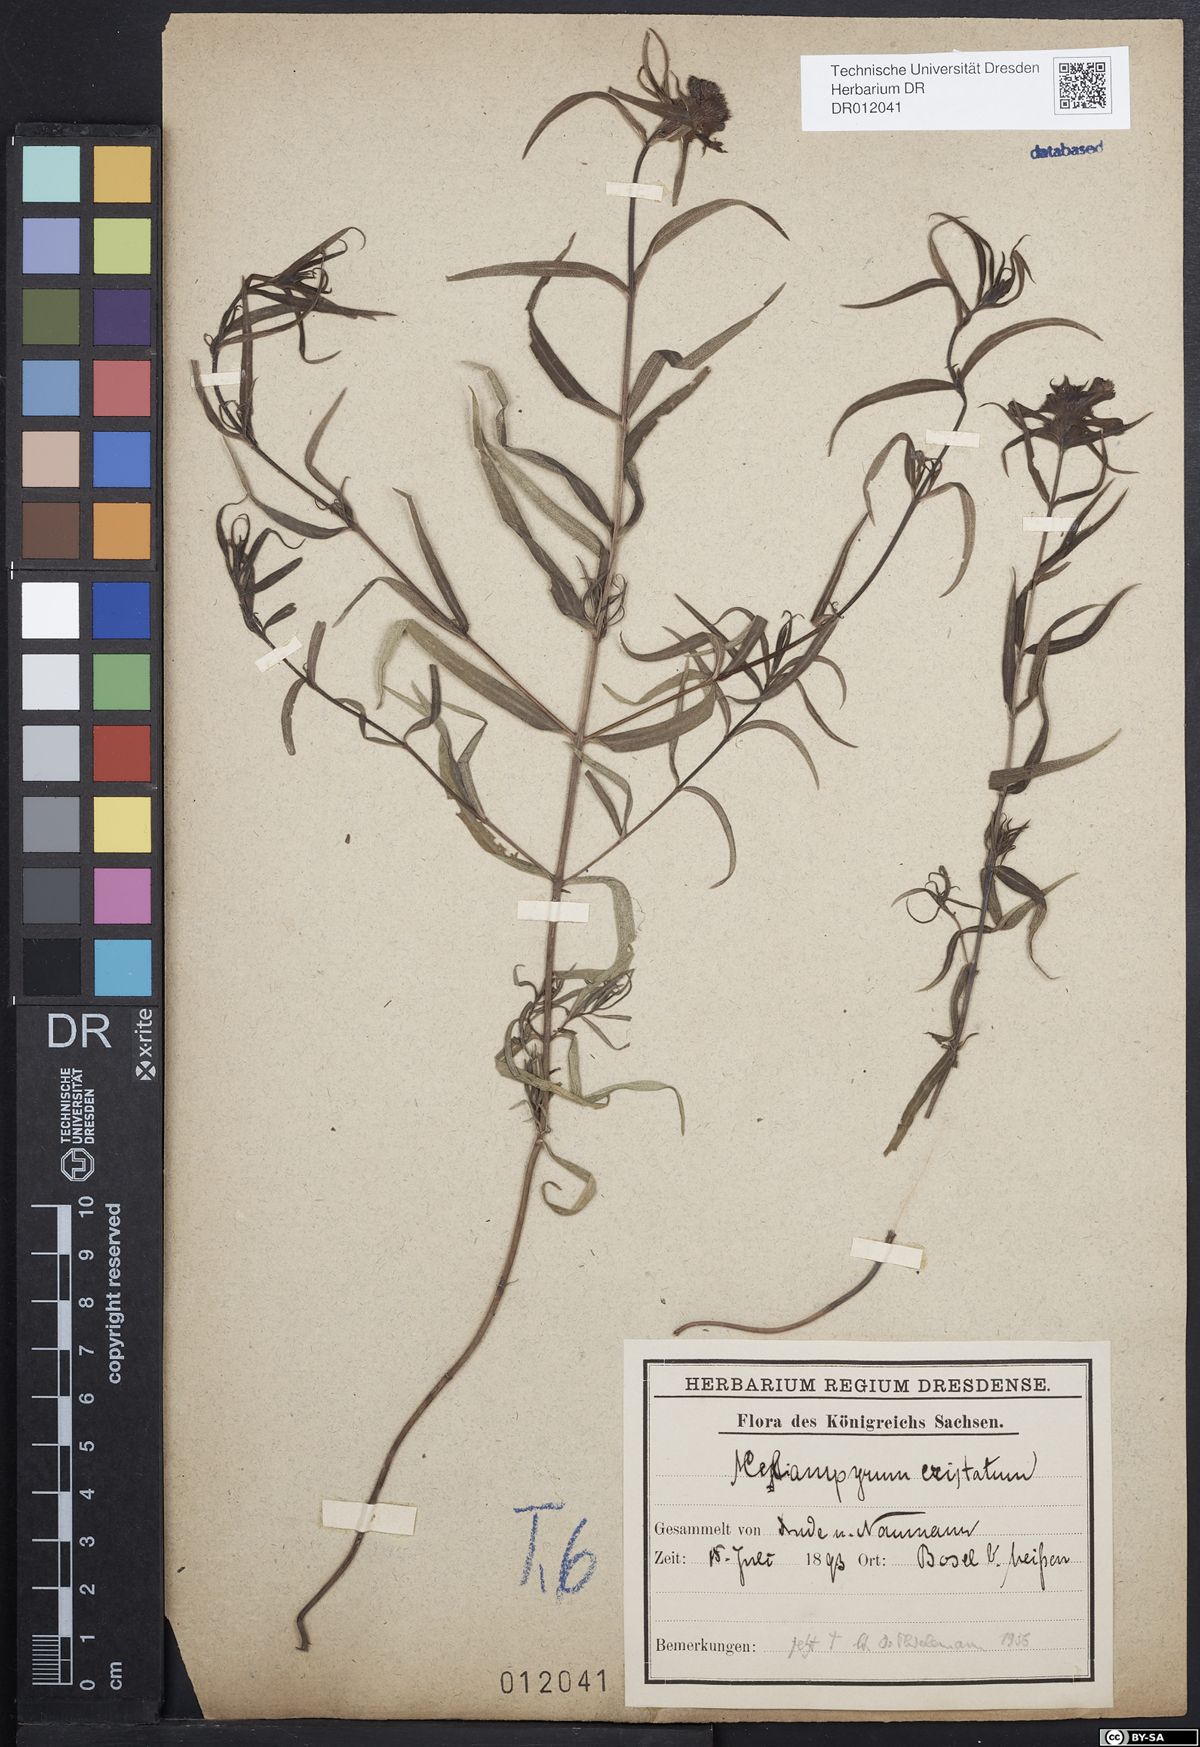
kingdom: Plantae
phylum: Tracheophyta
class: Magnoliopsida
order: Lamiales
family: Orobanchaceae
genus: Melampyrum
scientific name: Melampyrum cristatum
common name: Crested cow-wheat
